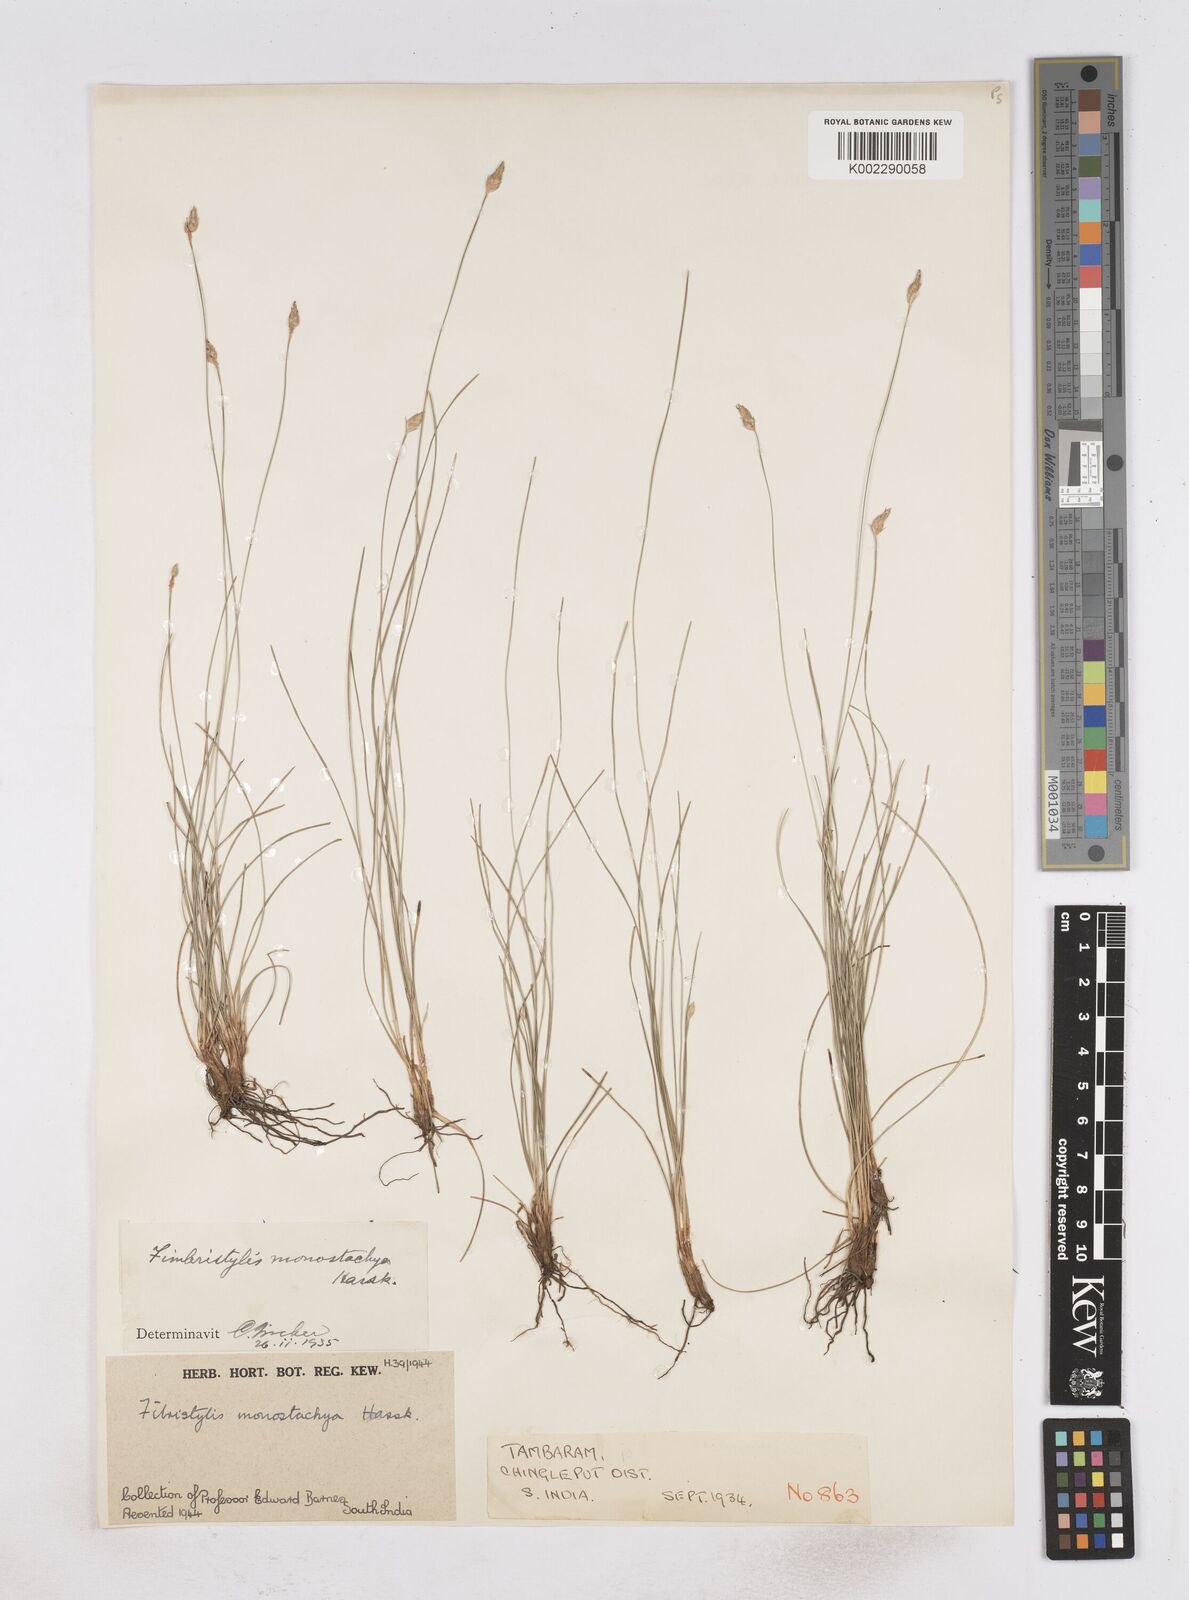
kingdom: Plantae
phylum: Tracheophyta
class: Liliopsida
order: Poales
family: Cyperaceae
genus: Abildgaardia
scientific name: Abildgaardia ovata
